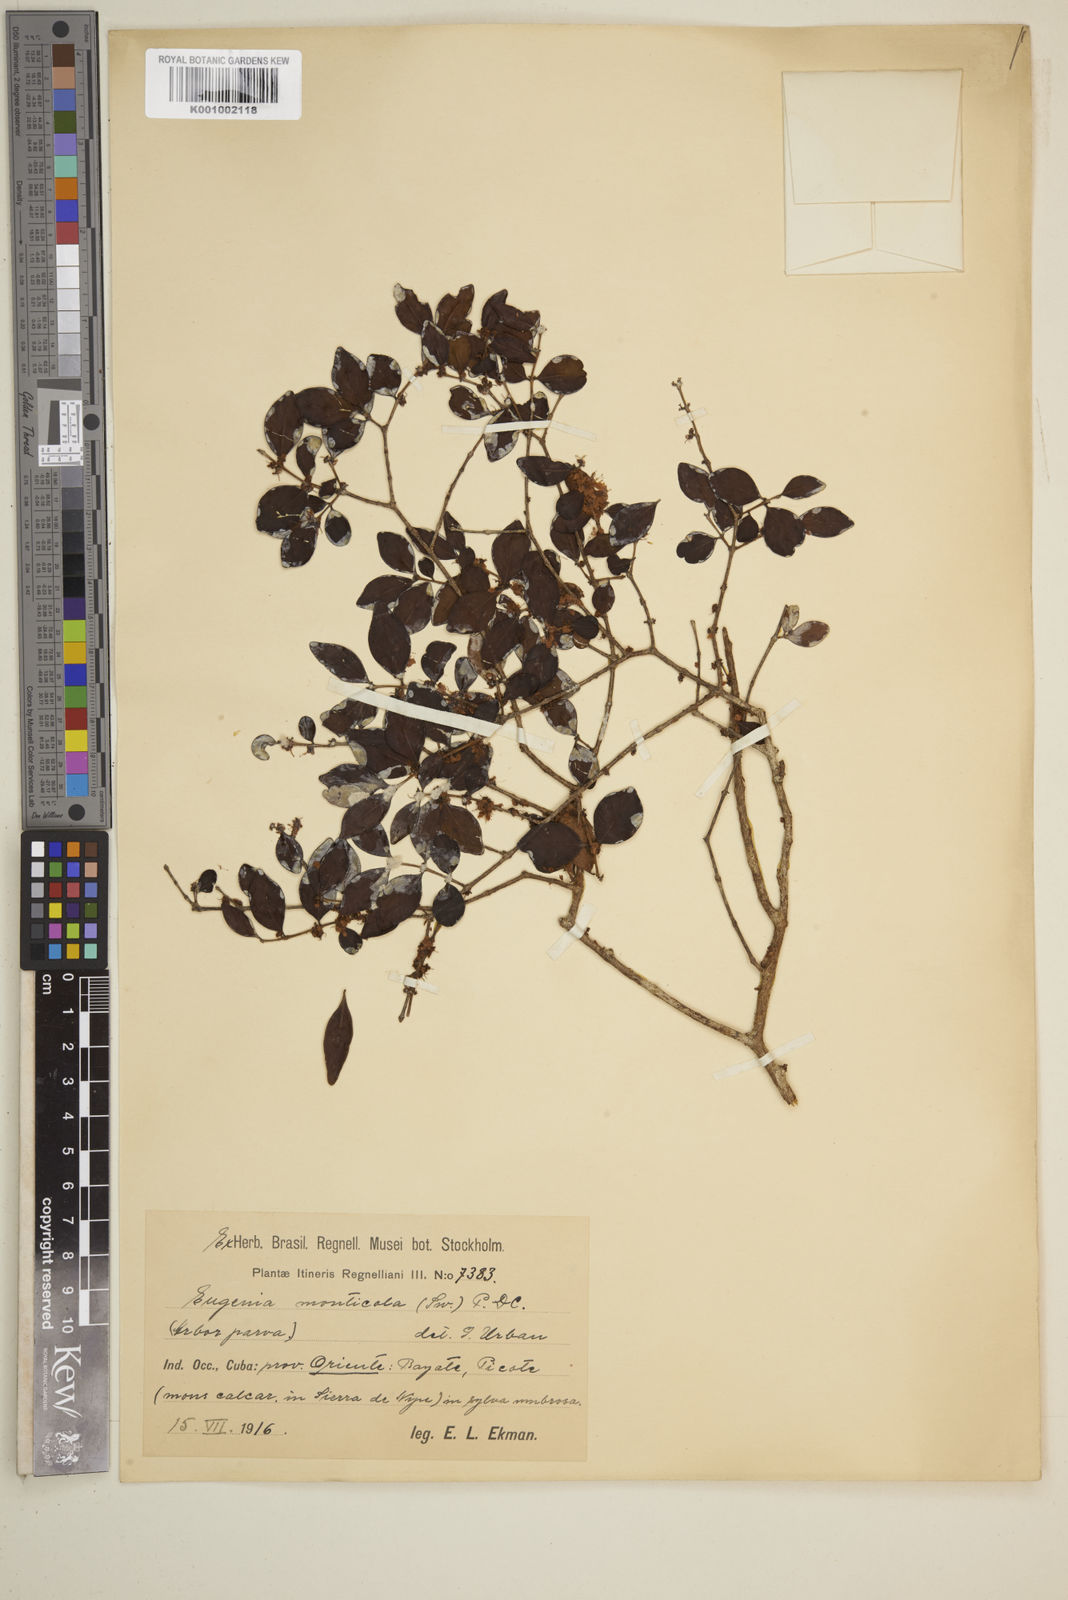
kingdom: Plantae
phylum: Tracheophyta
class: Magnoliopsida
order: Myrtales
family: Myrtaceae
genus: Eugenia
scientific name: Eugenia monticola
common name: Birds berry
